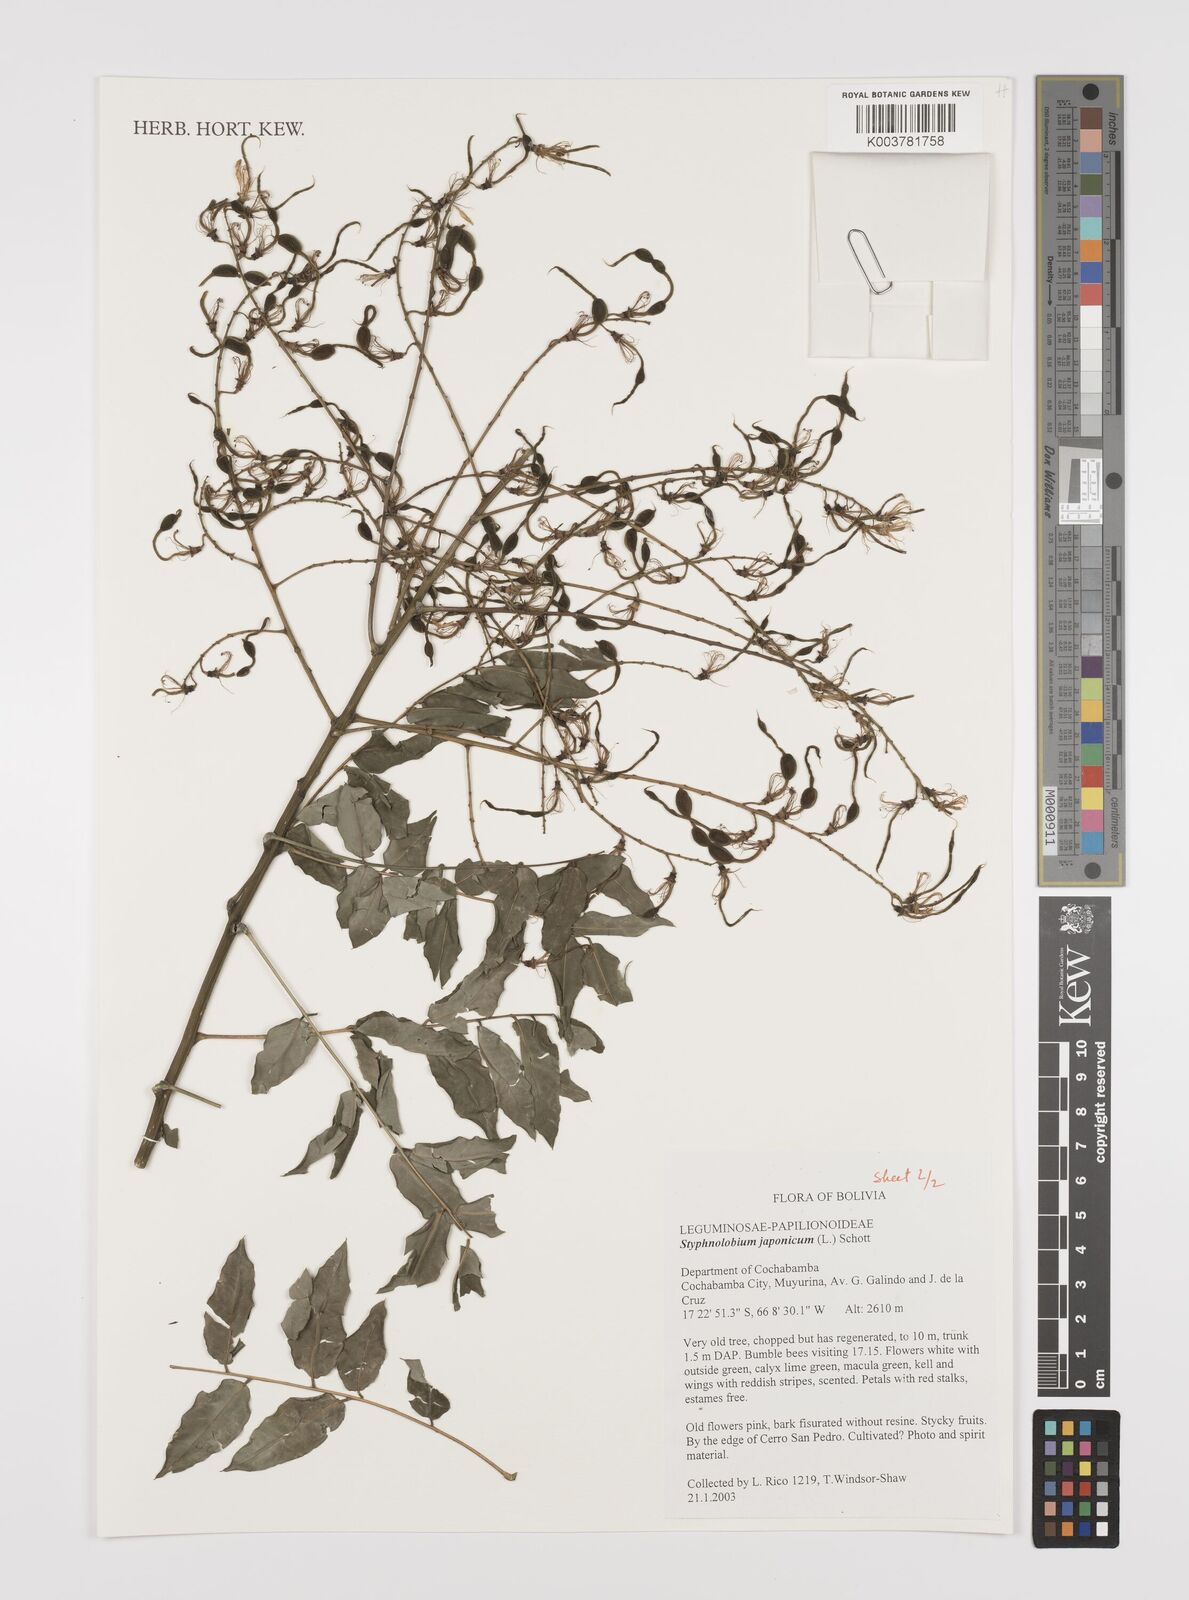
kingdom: Plantae
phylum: Tracheophyta
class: Magnoliopsida
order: Fabales
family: Fabaceae
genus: Styphnolobium
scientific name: Styphnolobium japonicum
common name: Chinese scholartree
